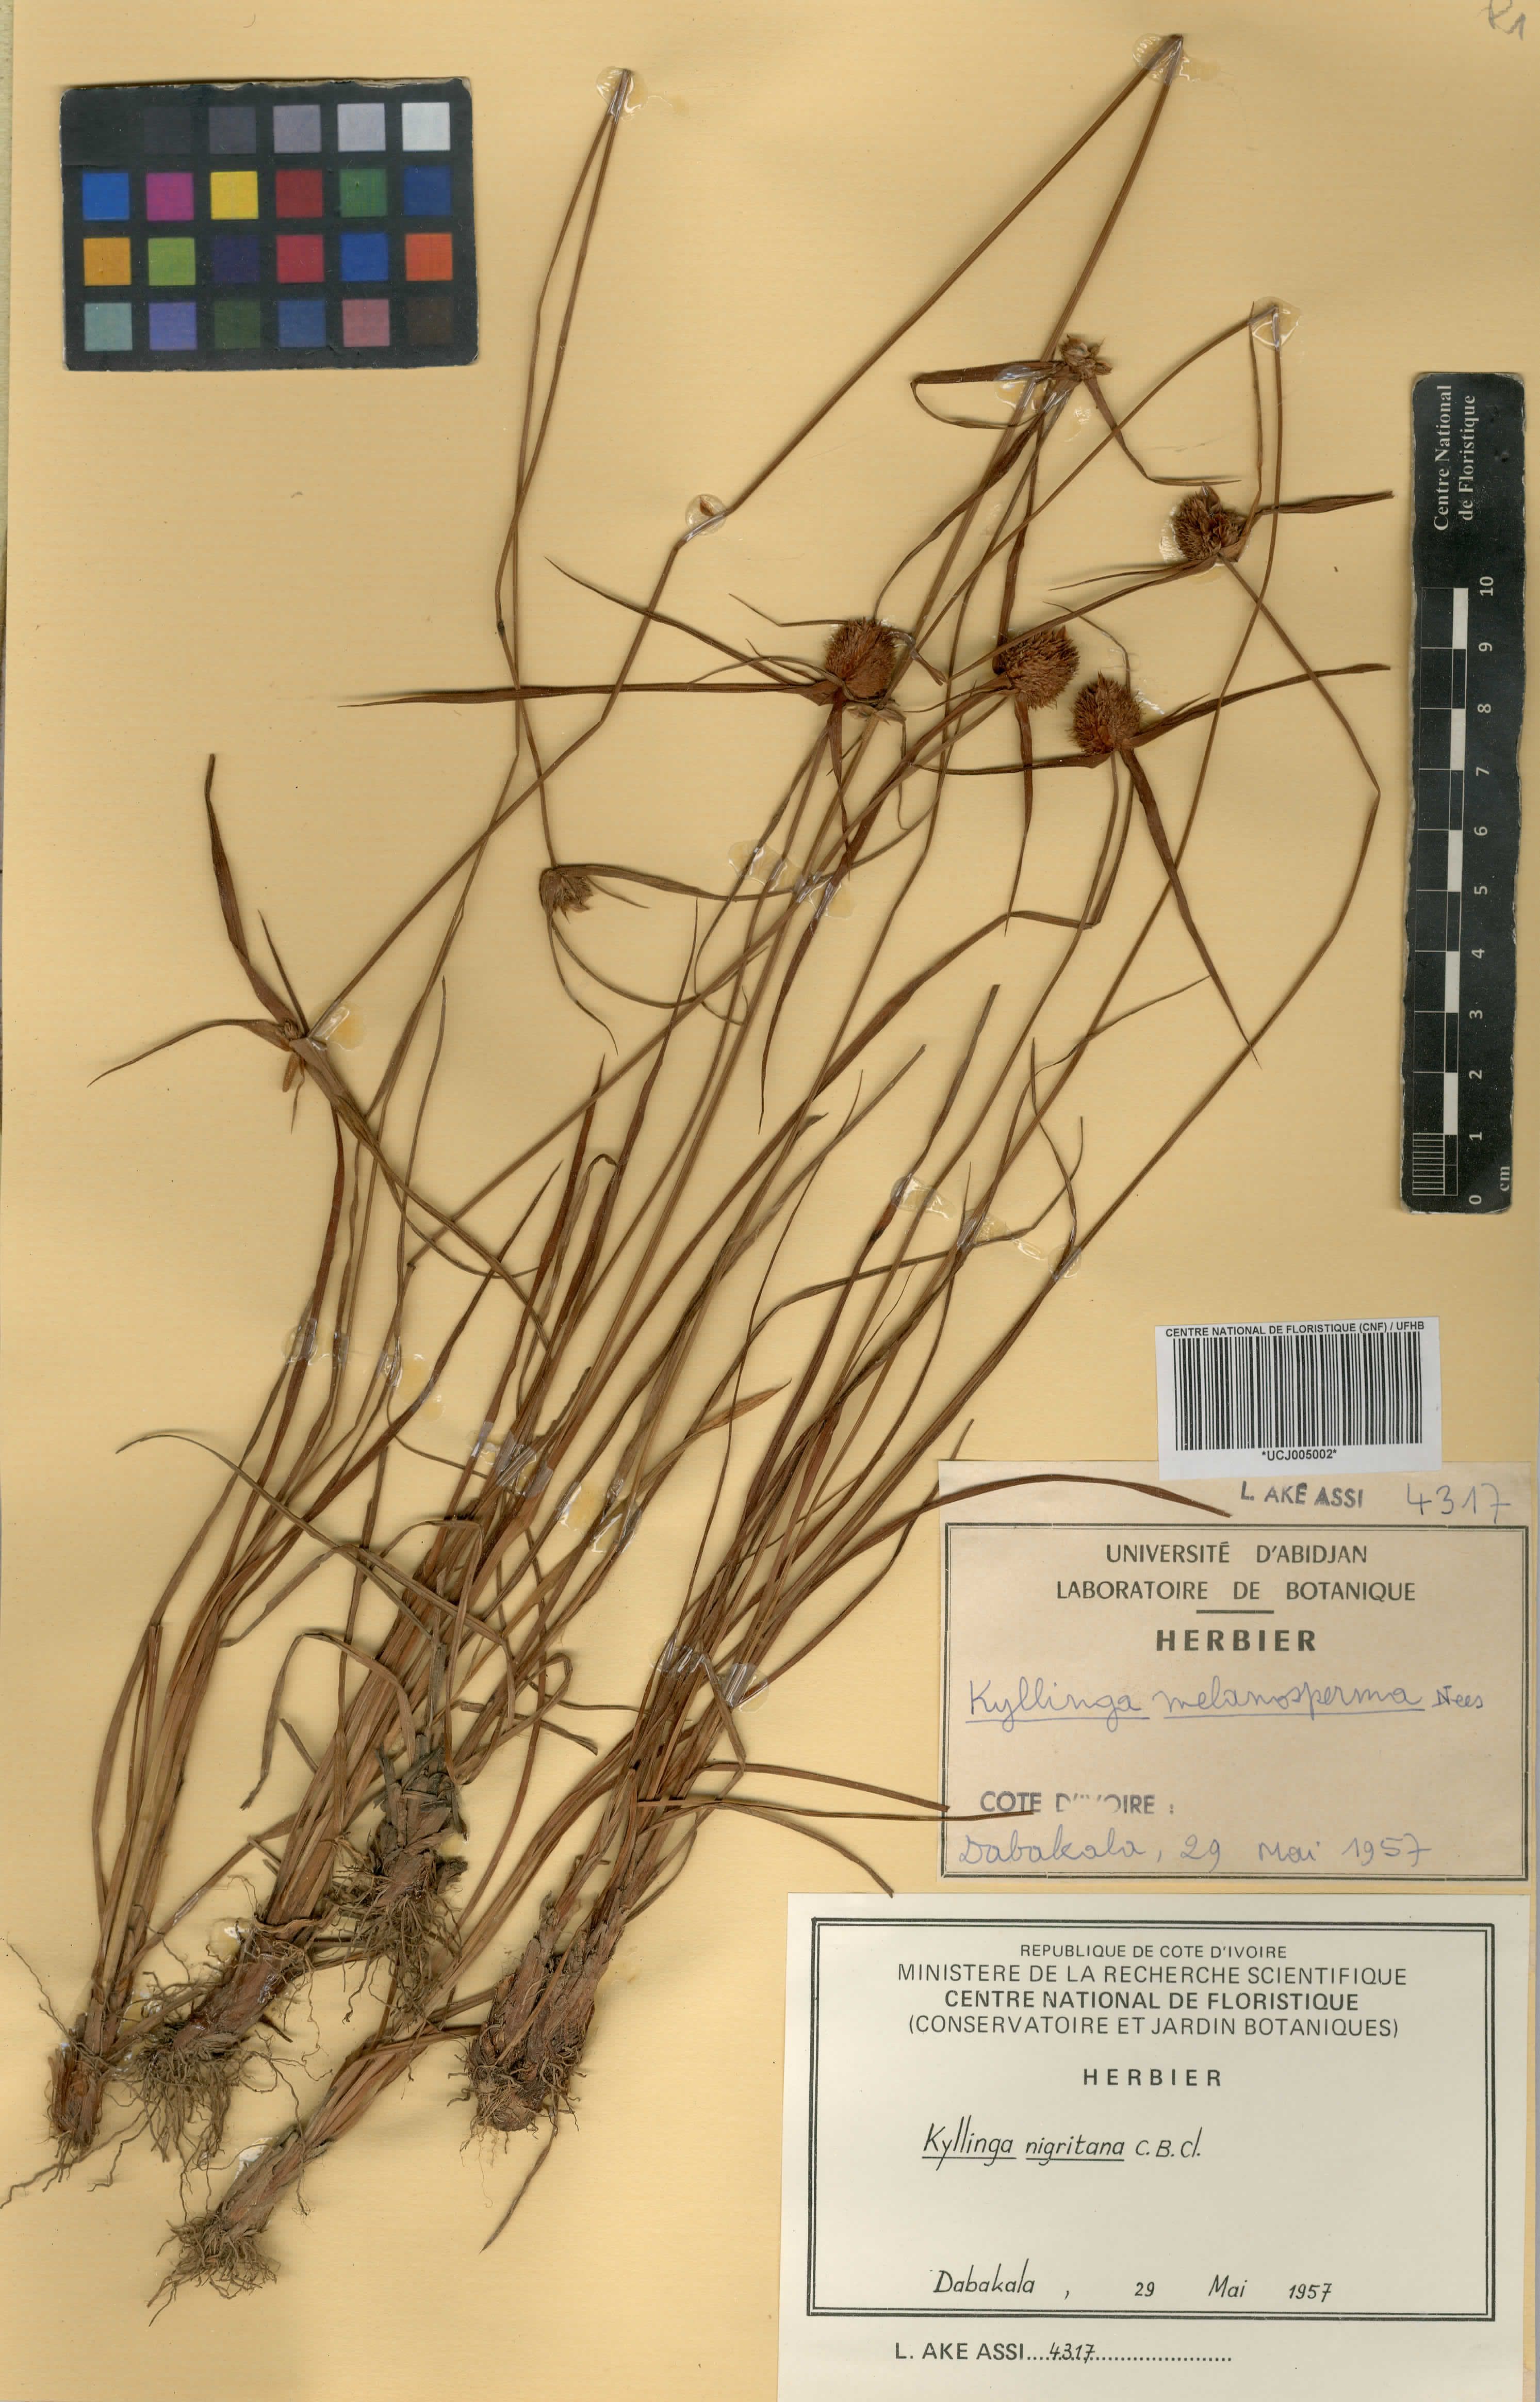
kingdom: Plantae
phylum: Tracheophyta
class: Liliopsida
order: Poales
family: Cyperaceae
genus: Cyperus
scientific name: Cyperus alatus
